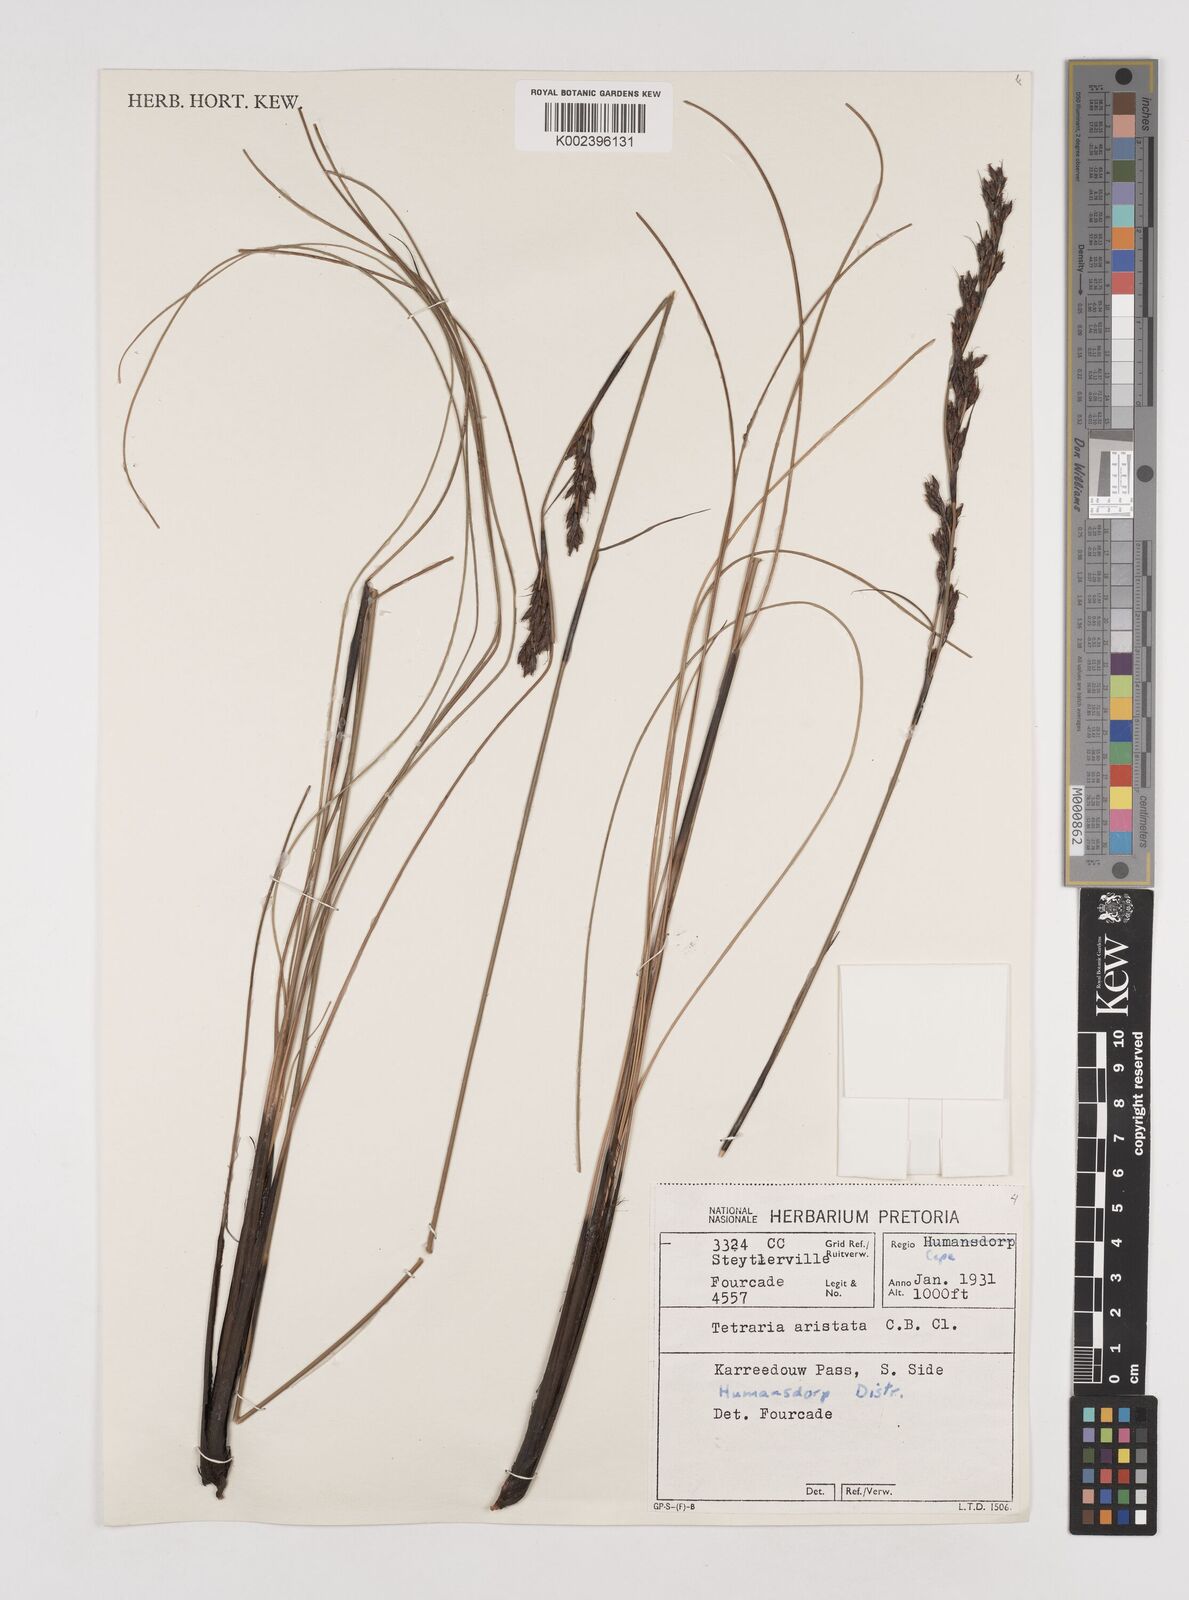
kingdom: Plantae
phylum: Tracheophyta
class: Liliopsida
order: Poales
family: Cyperaceae
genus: Tetraria
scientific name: Tetraria flexuosa
